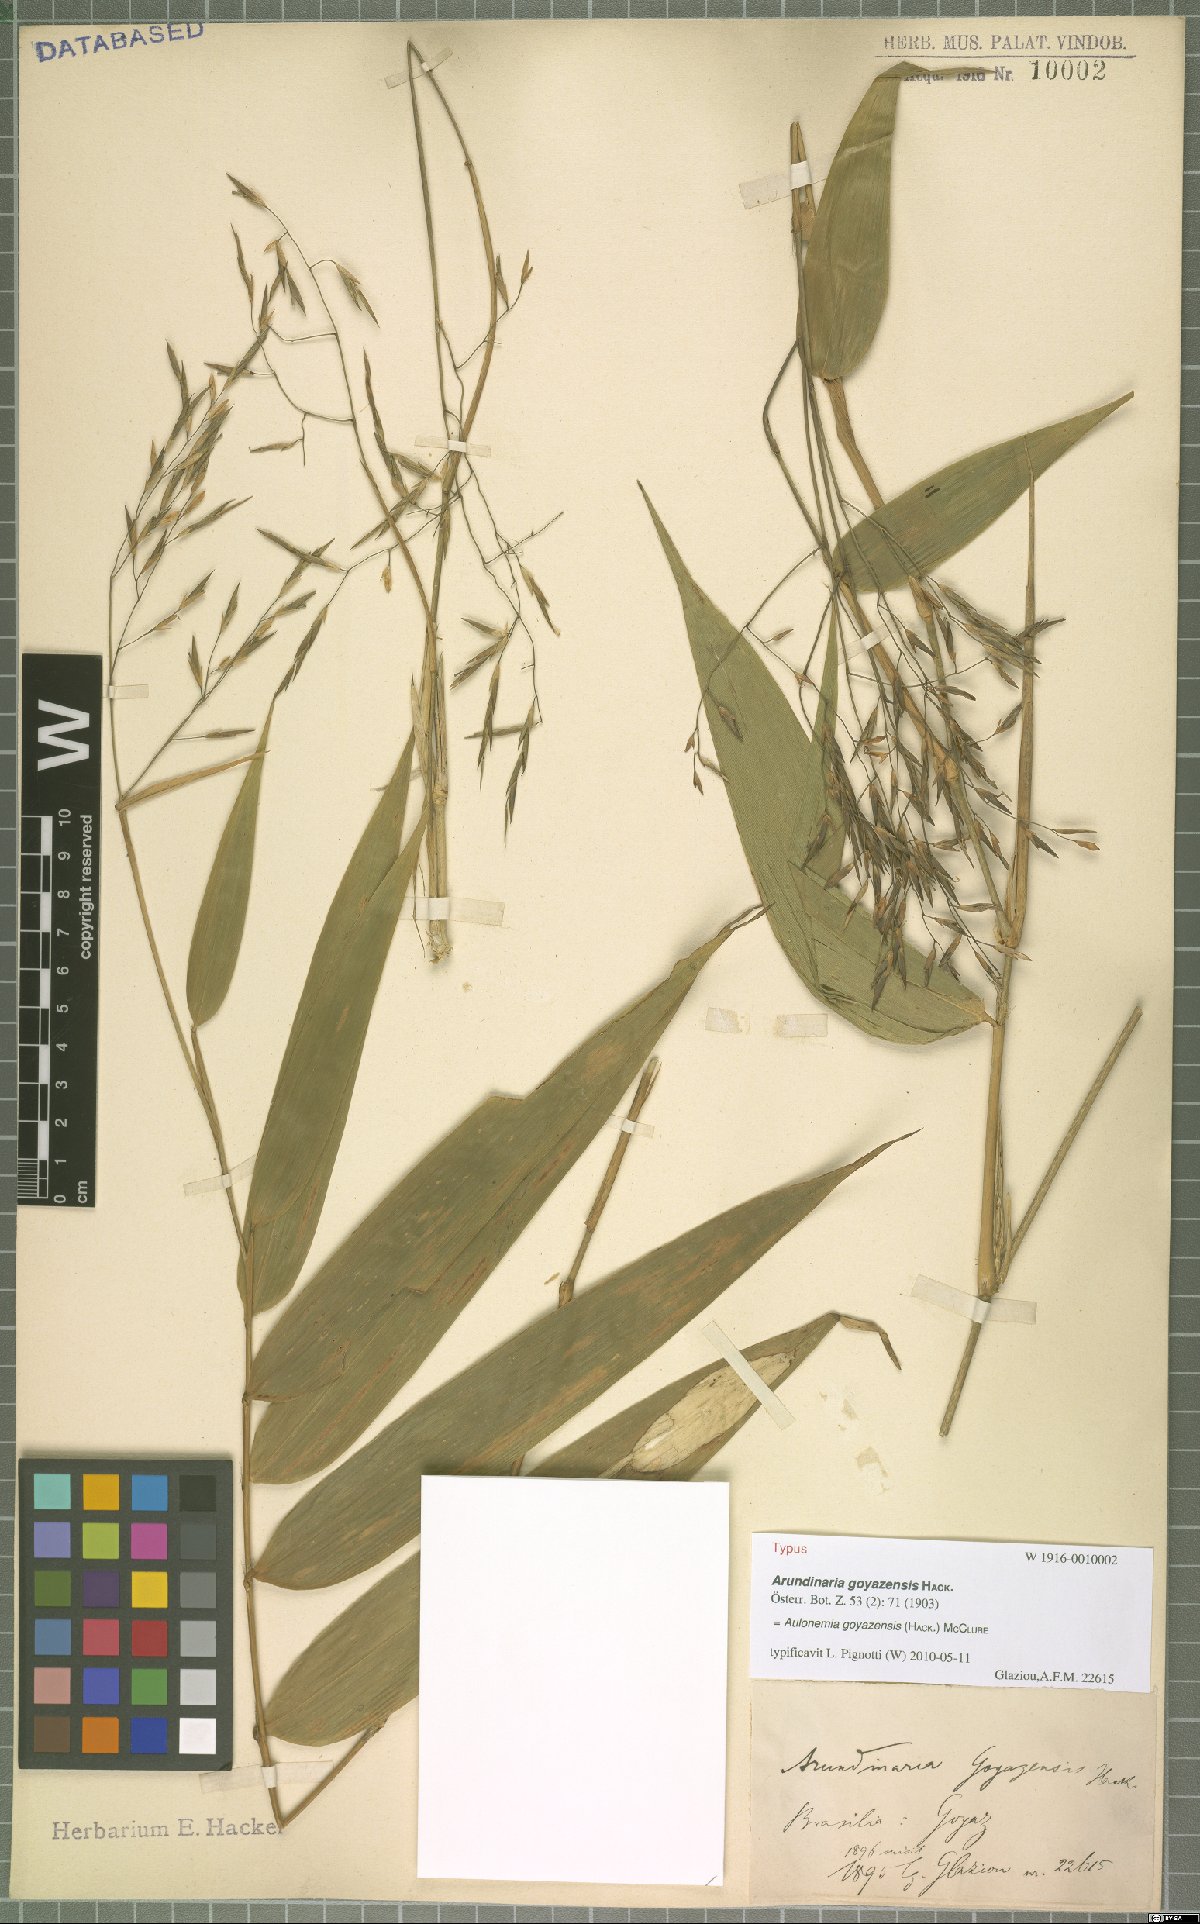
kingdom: Plantae
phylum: Tracheophyta
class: Liliopsida
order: Poales
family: Poaceae
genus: Aulonemia
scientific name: Aulonemia goyazensis
